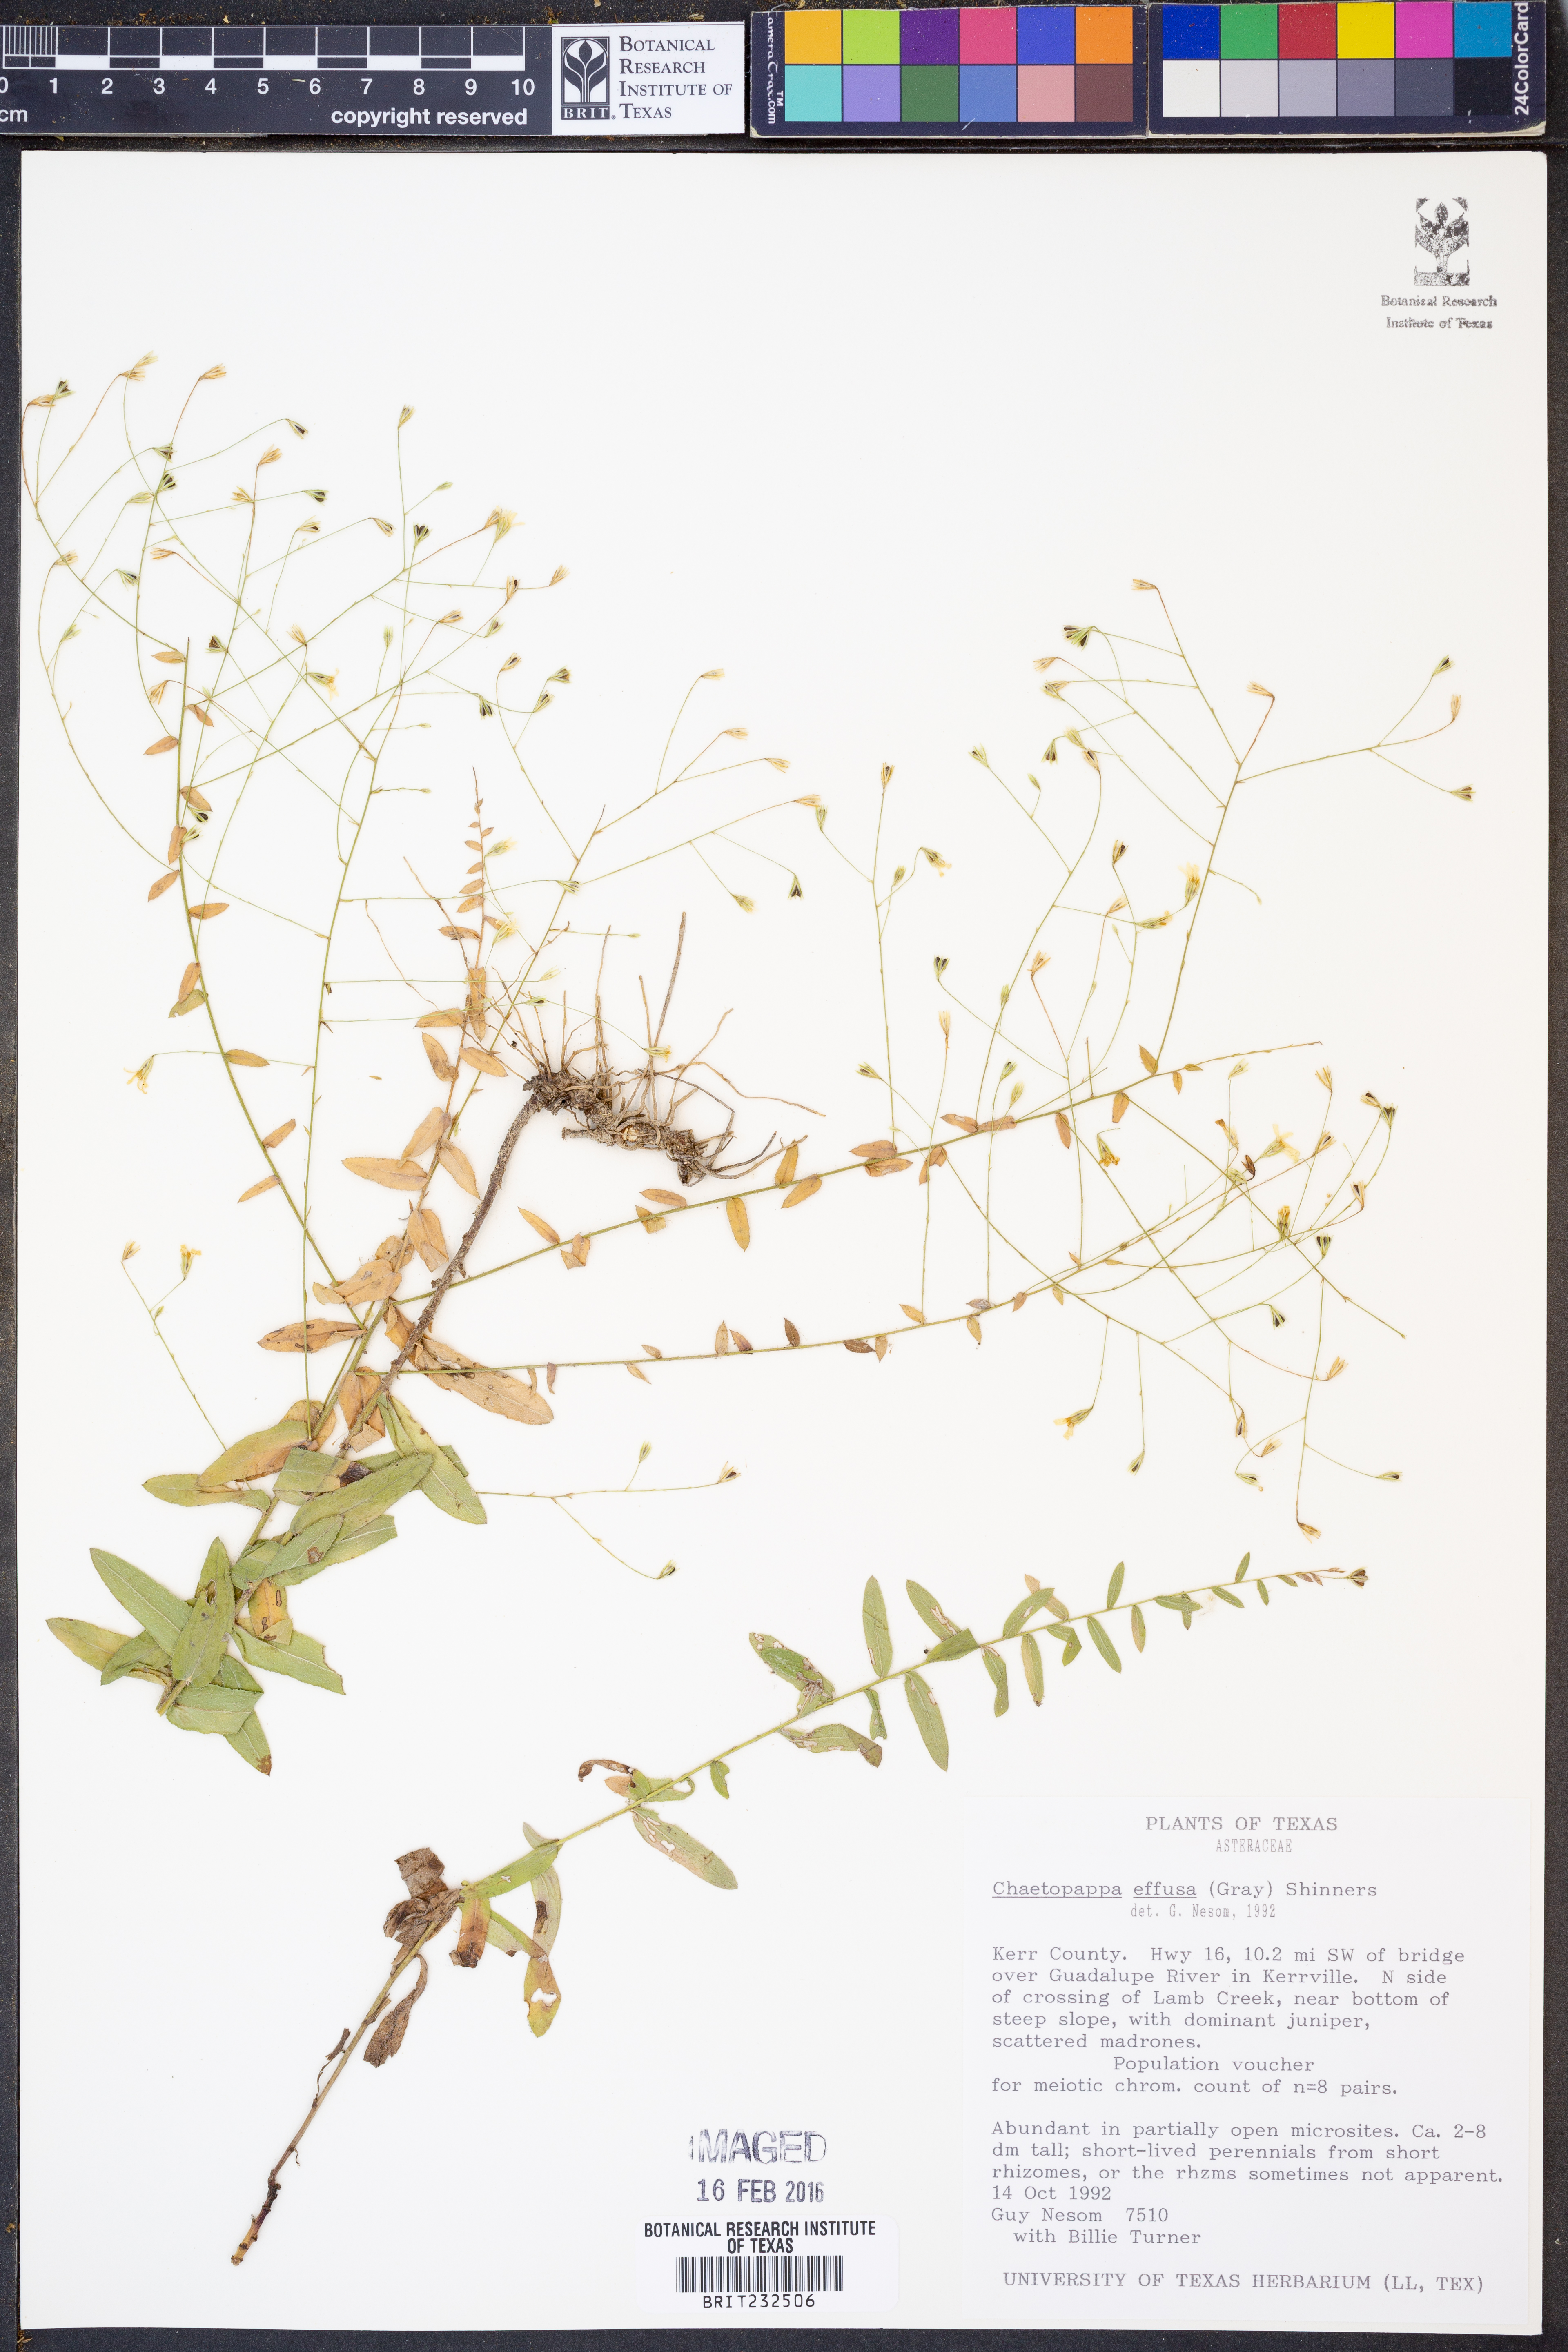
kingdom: Plantae
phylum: Tracheophyta
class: Magnoliopsida
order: Asterales
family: Asteraceae
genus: Chaetopappa
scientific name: Chaetopappa effusa
